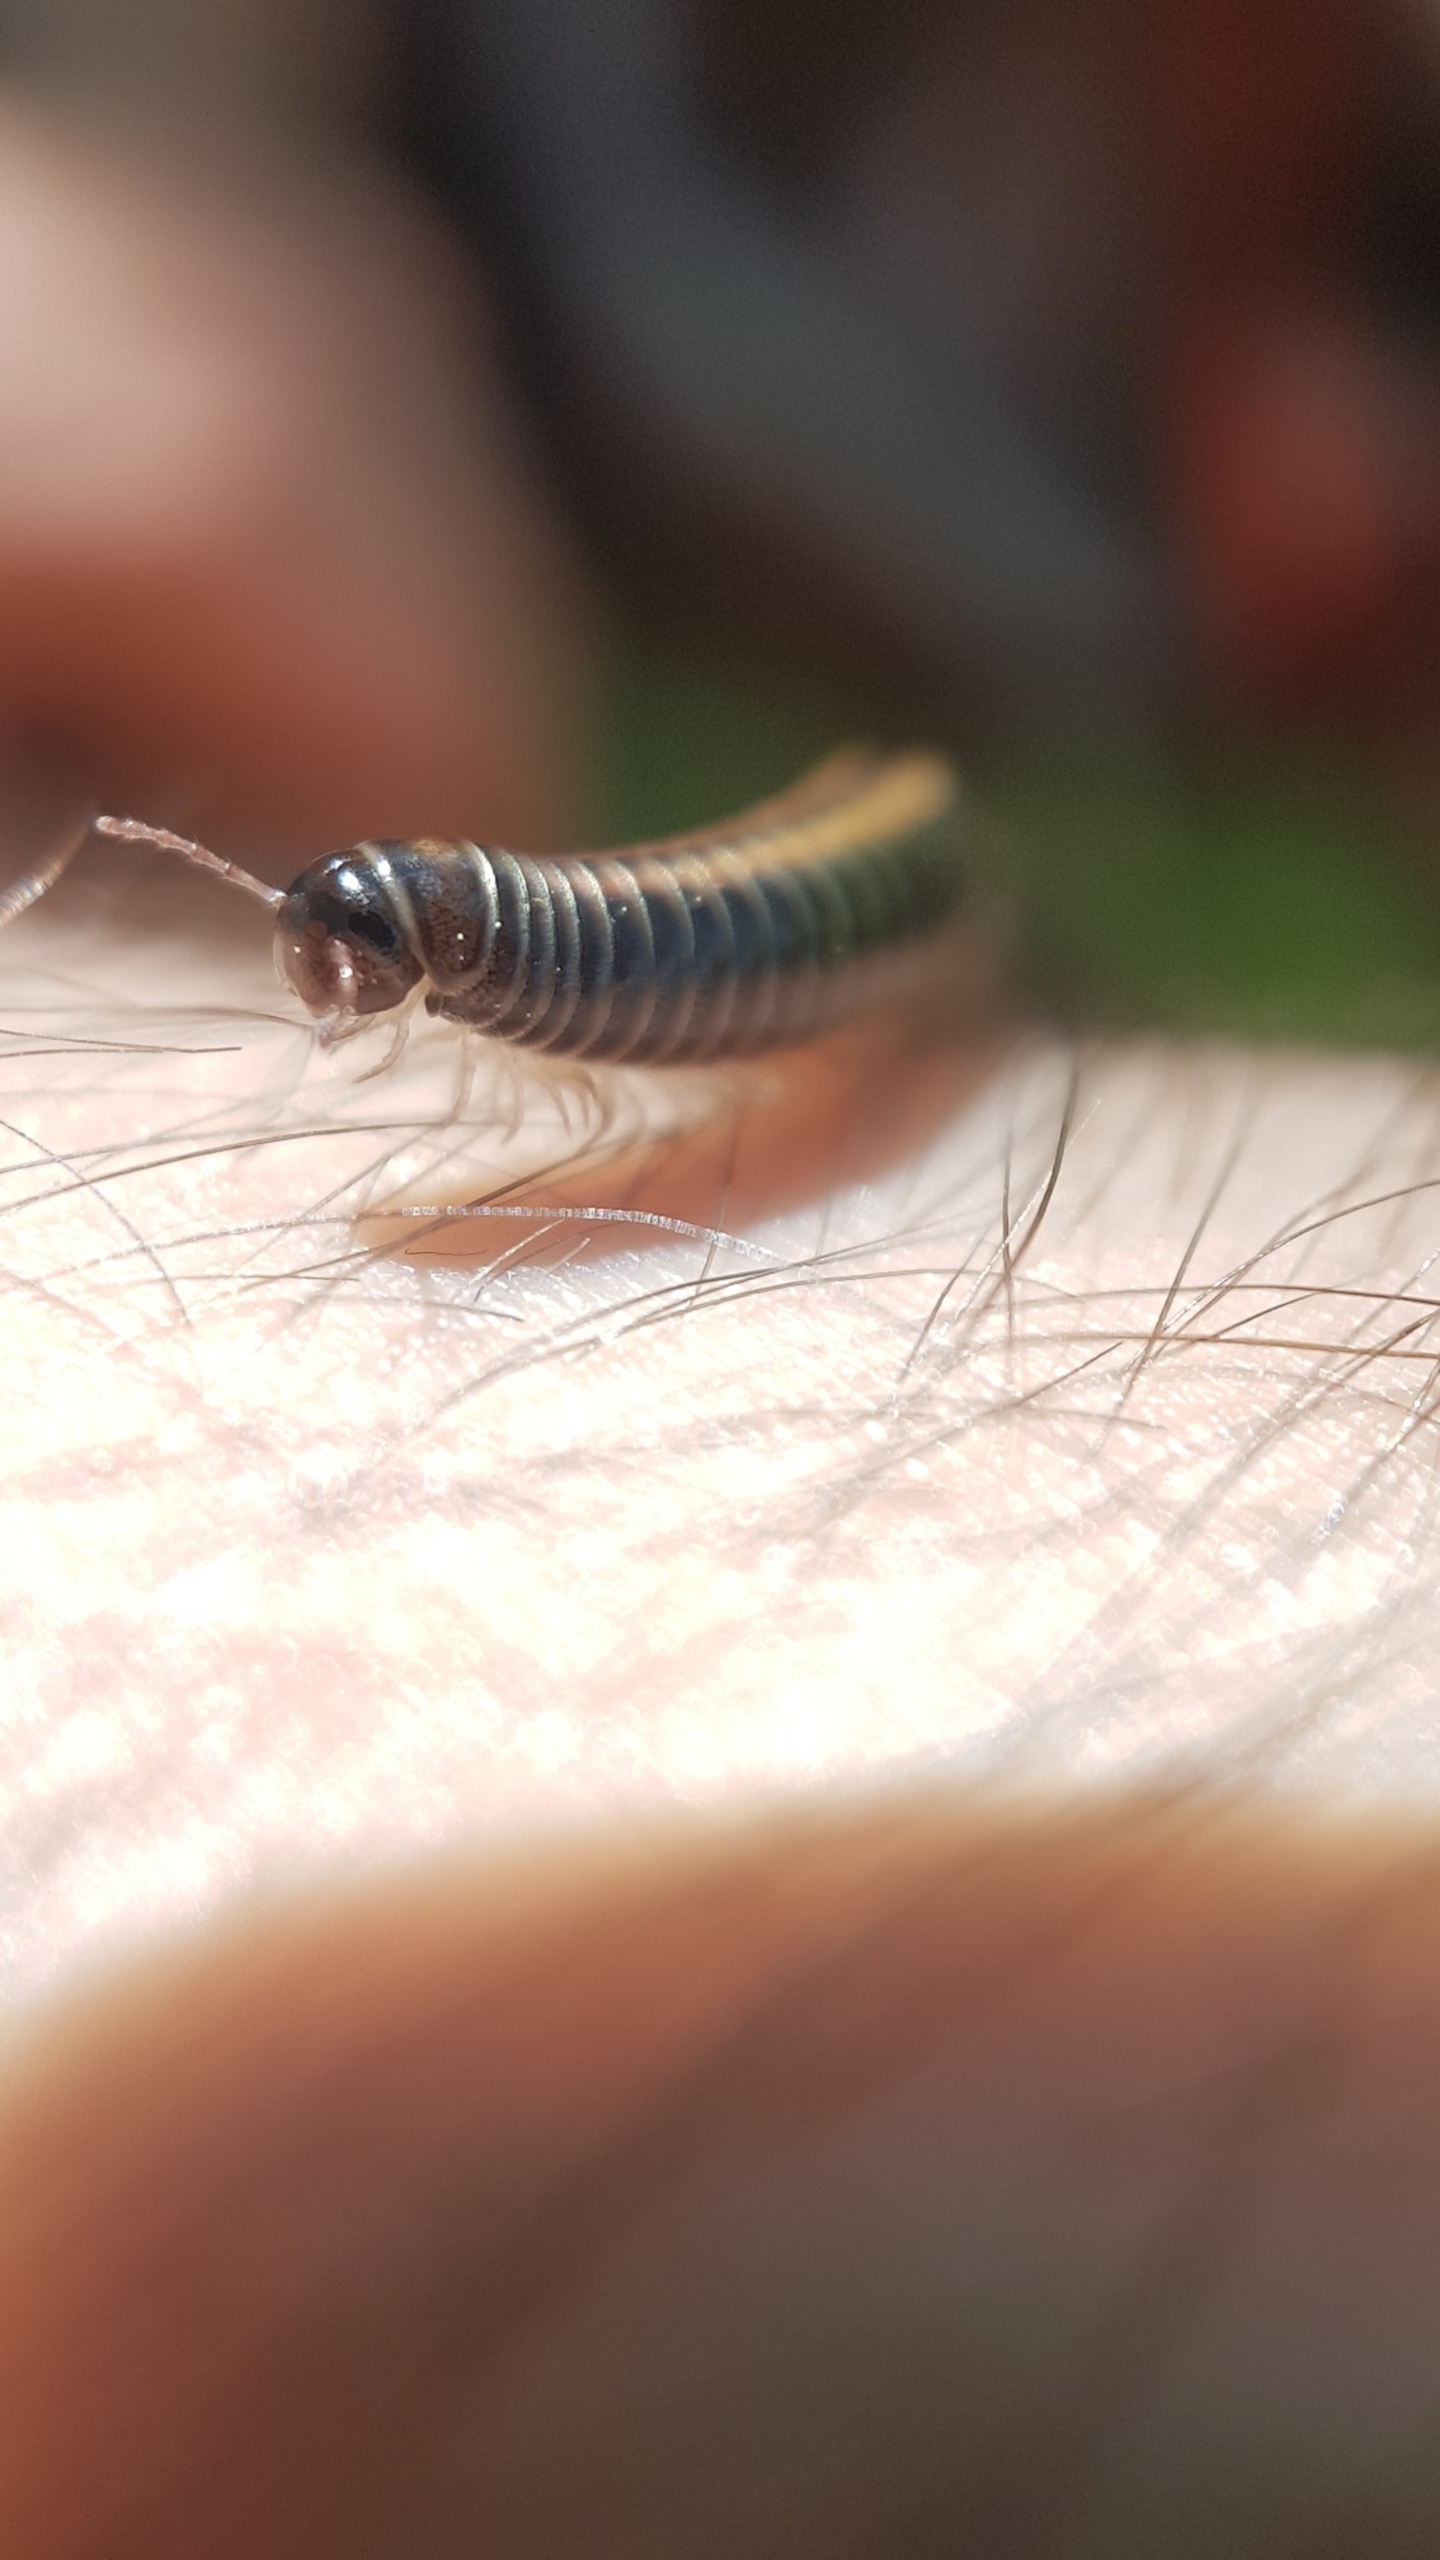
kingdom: Animalia
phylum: Arthropoda
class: Diplopoda
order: Julida
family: Julidae
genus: Ommatoiulus
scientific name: Ommatoiulus sabulosus
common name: Stor bånd-tusindben
